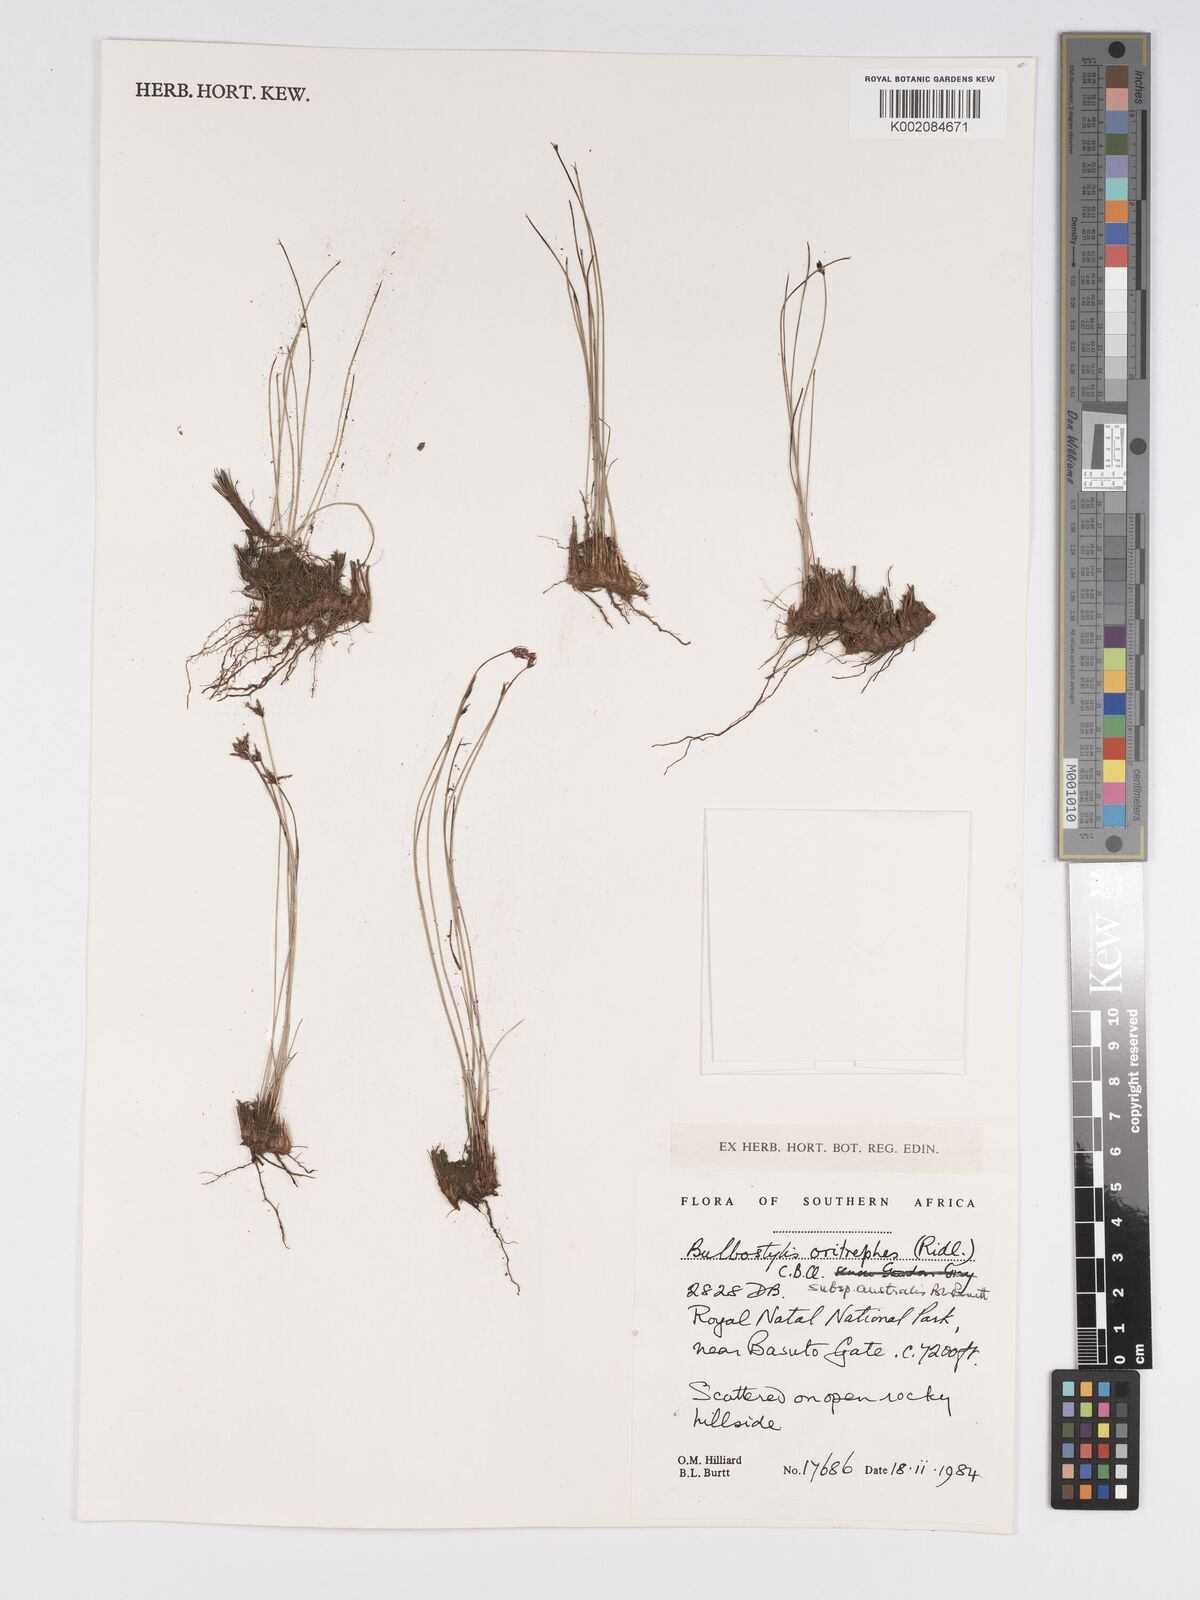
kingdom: Plantae
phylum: Tracheophyta
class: Liliopsida
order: Poales
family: Cyperaceae
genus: Bulbostylis
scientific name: Bulbostylis oritrephes
